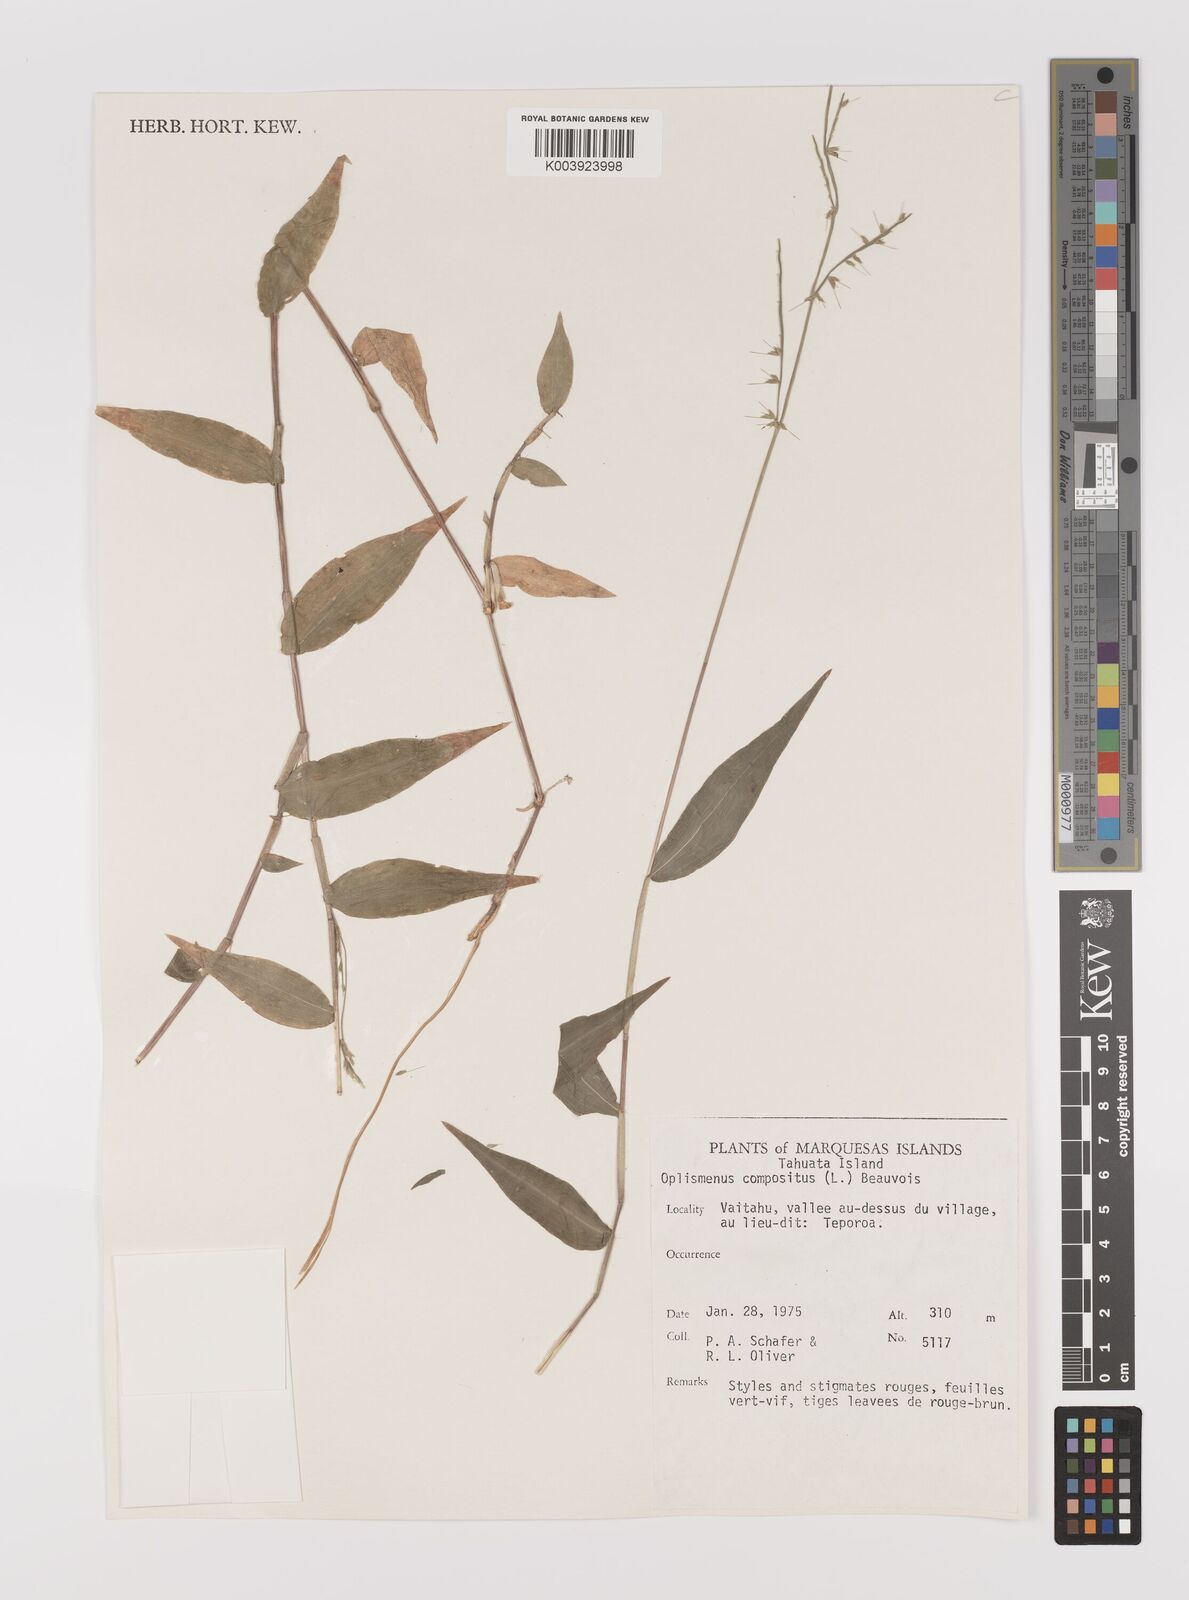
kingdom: Plantae
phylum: Tracheophyta
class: Liliopsida
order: Poales
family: Poaceae
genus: Oplismenus
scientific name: Oplismenus compositus
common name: Running mountain grass
